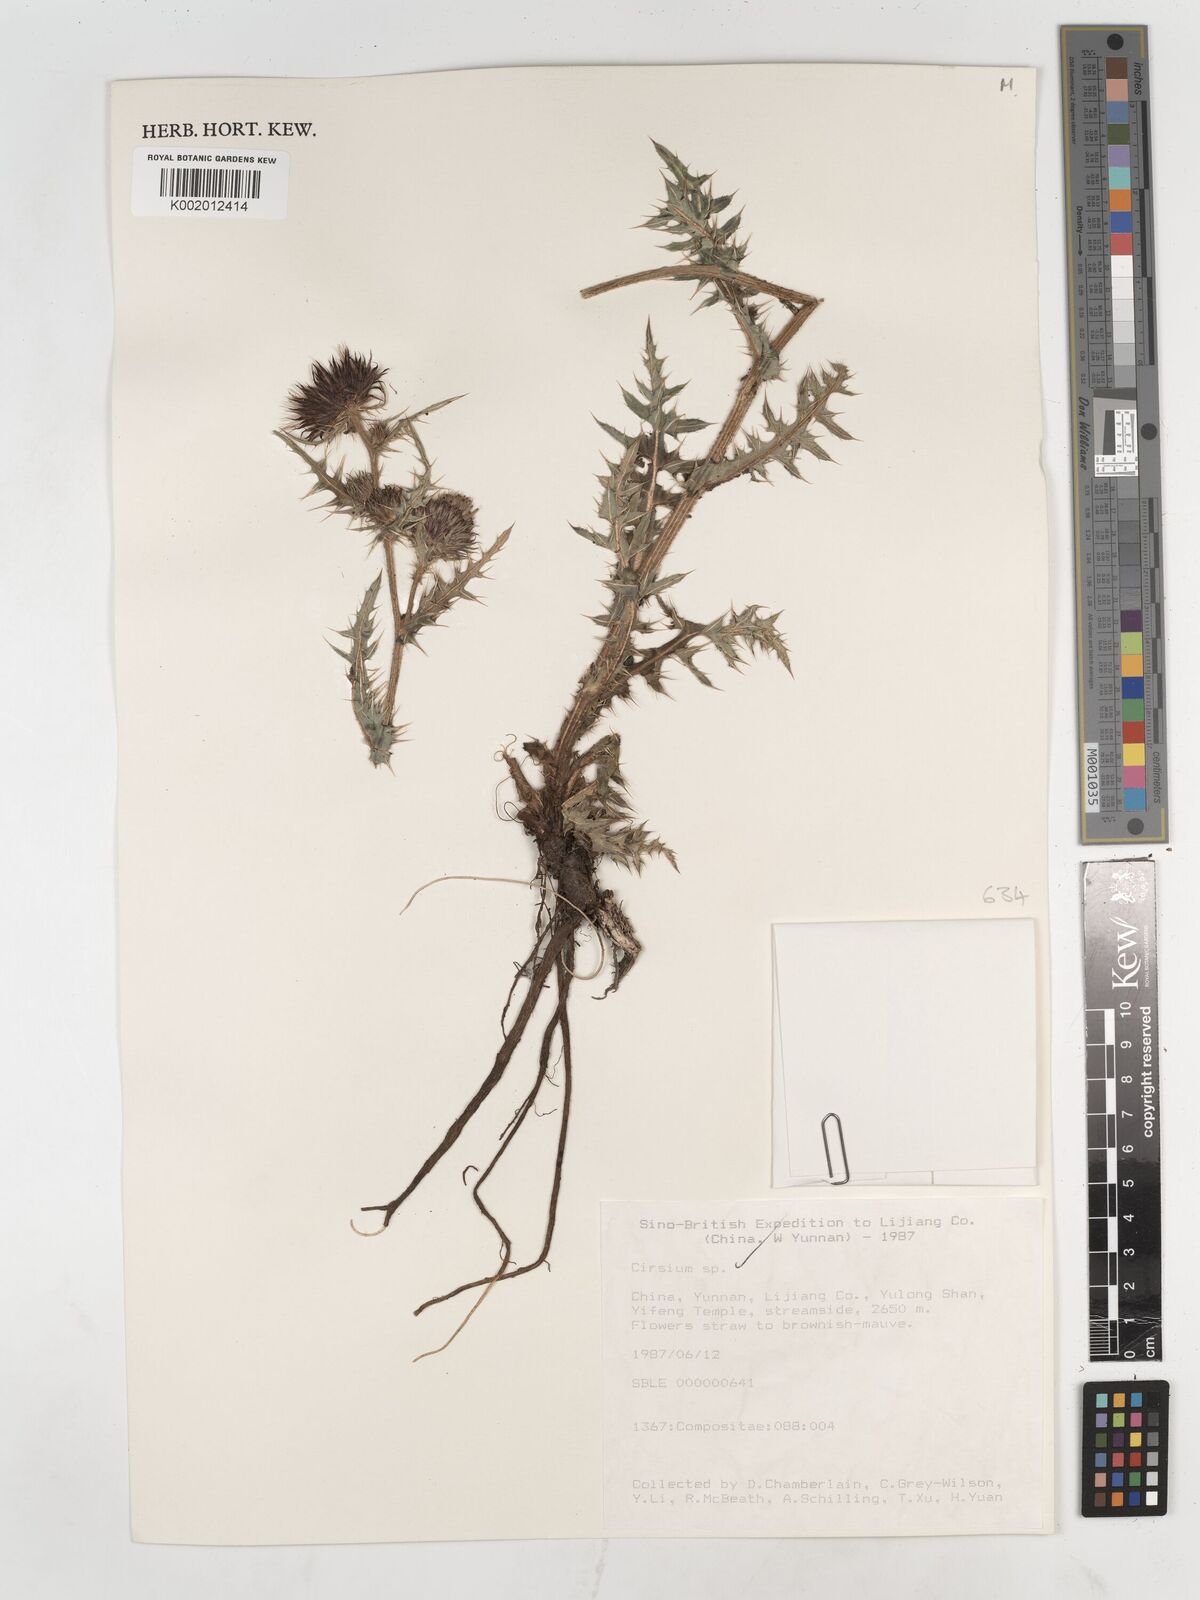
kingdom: Plantae
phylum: Tracheophyta
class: Magnoliopsida
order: Asterales
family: Asteraceae
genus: Cirsium
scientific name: Cirsium
